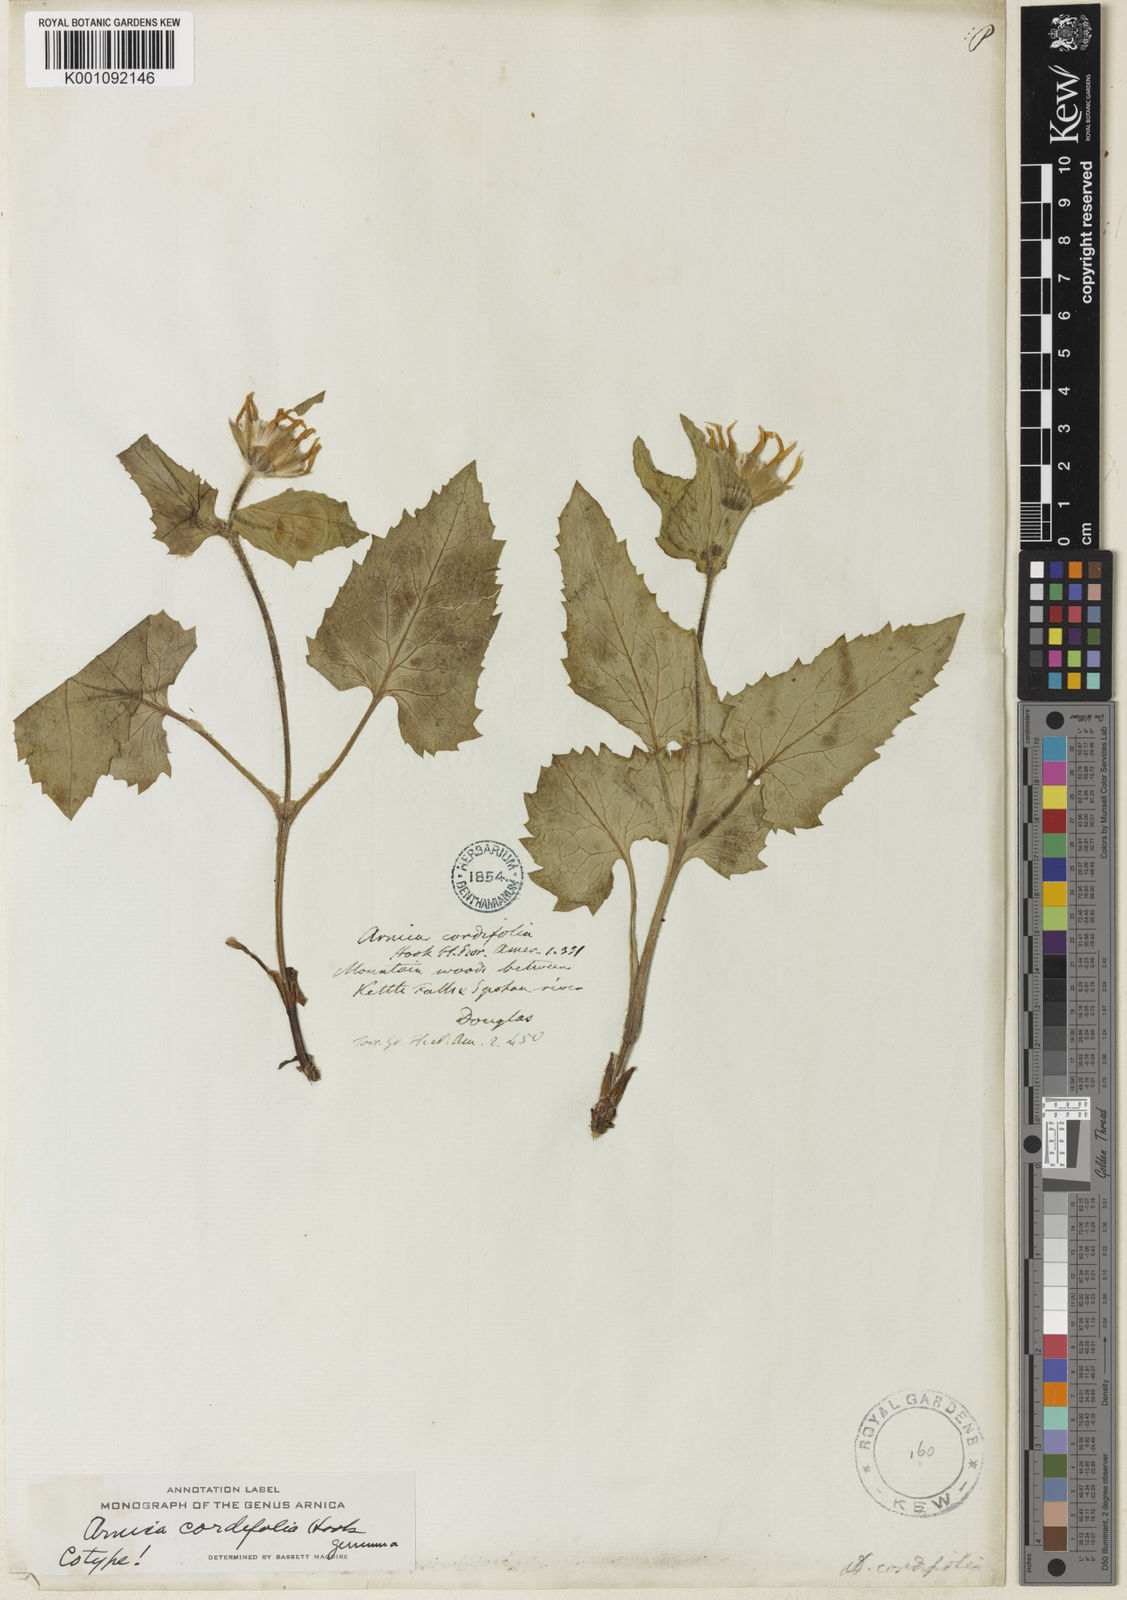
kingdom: Plantae
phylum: Tracheophyta
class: Magnoliopsida
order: Asterales
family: Asteraceae
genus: Arnica
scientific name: Arnica cordifolia
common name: Heart-leaf arnica
